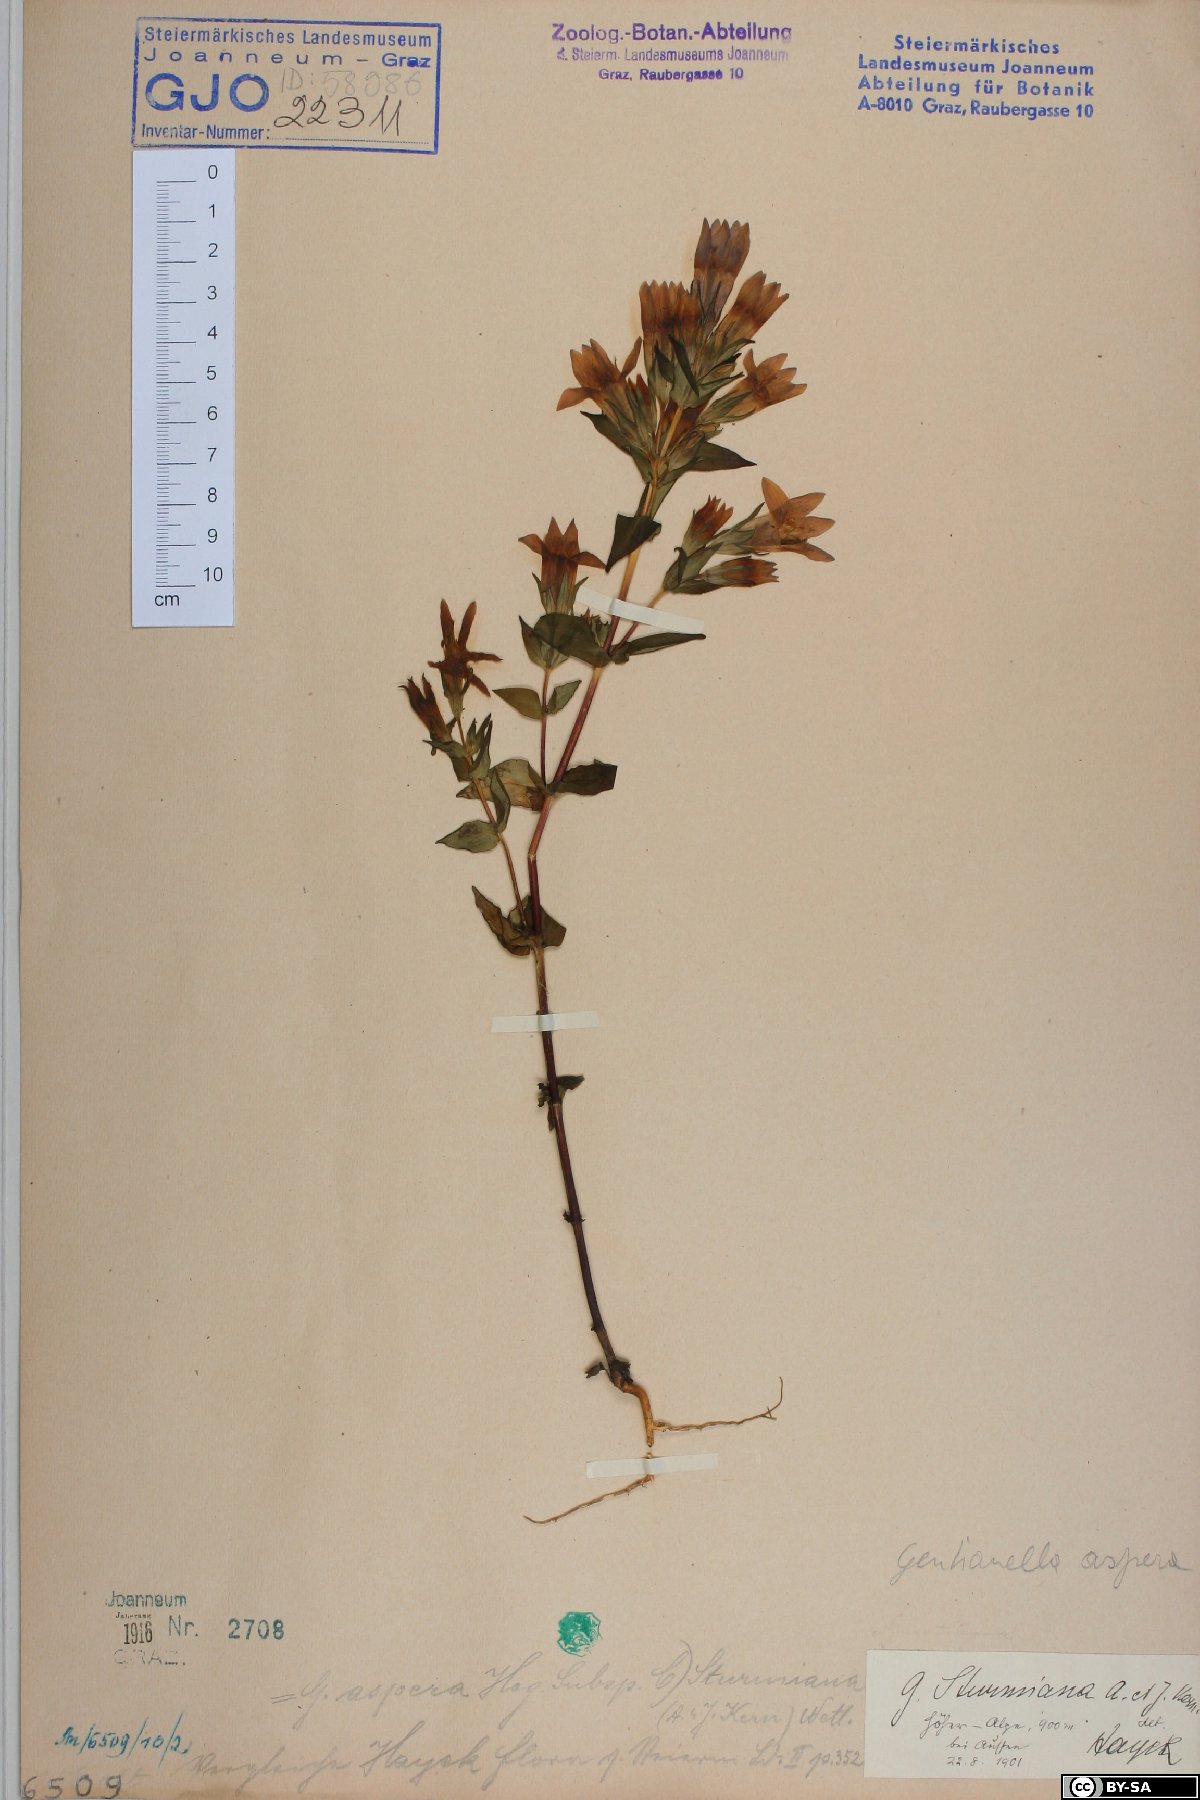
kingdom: Plantae
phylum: Tracheophyta
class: Magnoliopsida
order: Gentianales
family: Gentianaceae
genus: Gentianella
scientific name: Gentianella obtusifolia
